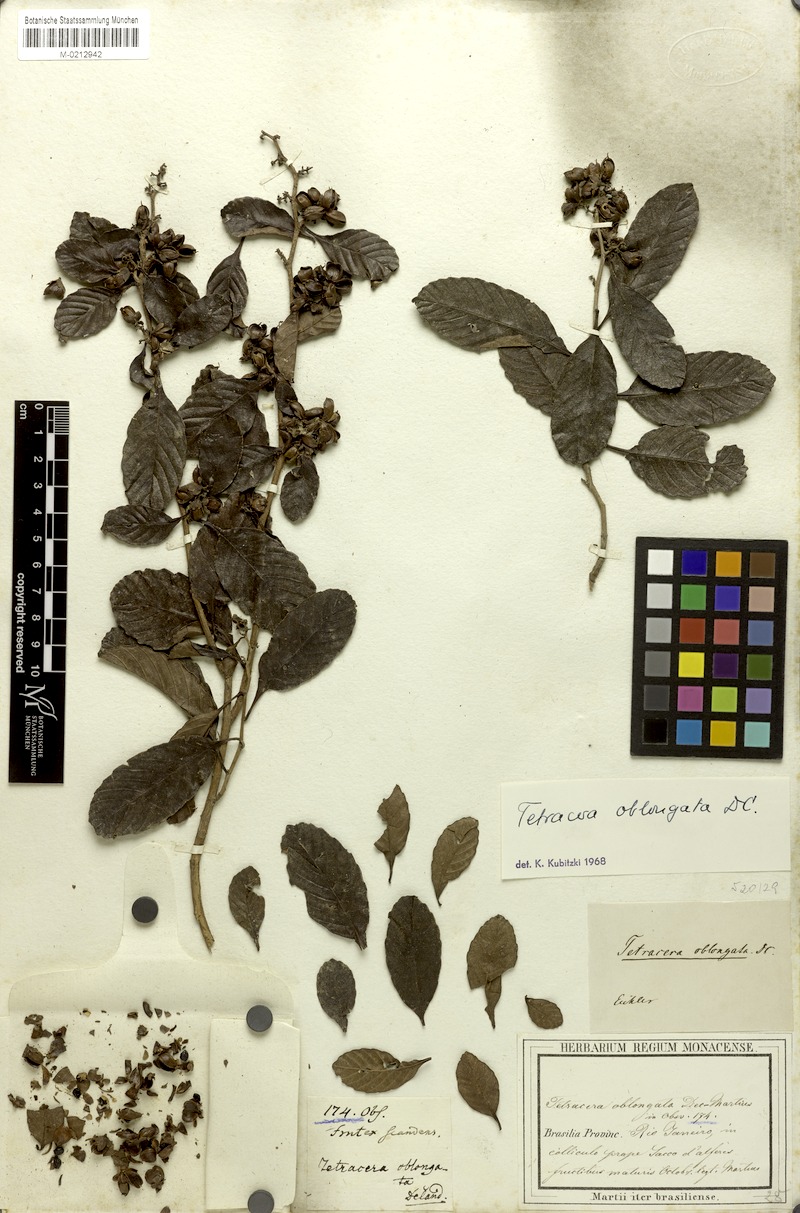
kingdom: Plantae
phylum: Tracheophyta
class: Magnoliopsida
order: Dilleniales
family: Dilleniaceae
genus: Tetracera
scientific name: Tetracera oblongata
